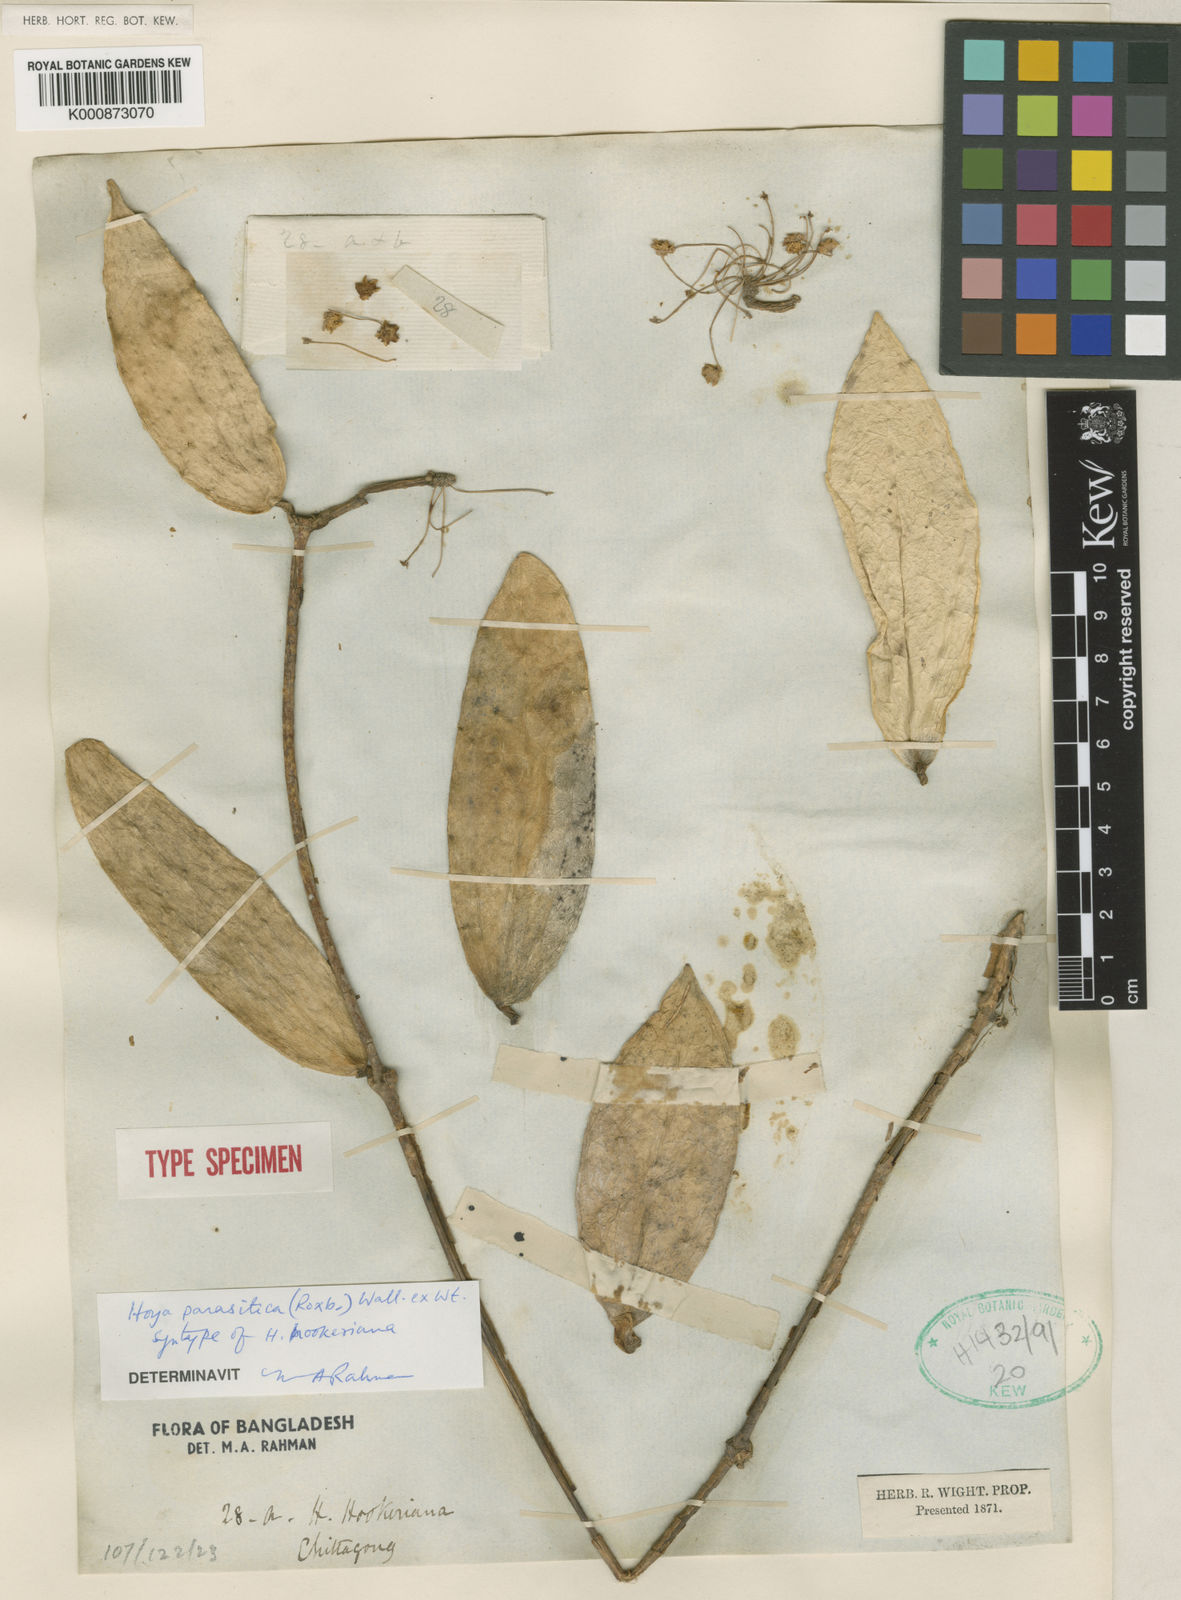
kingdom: Plantae
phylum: Tracheophyta
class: Magnoliopsida
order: Gentianales
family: Apocynaceae
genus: Hoya
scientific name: Hoya verticillata
